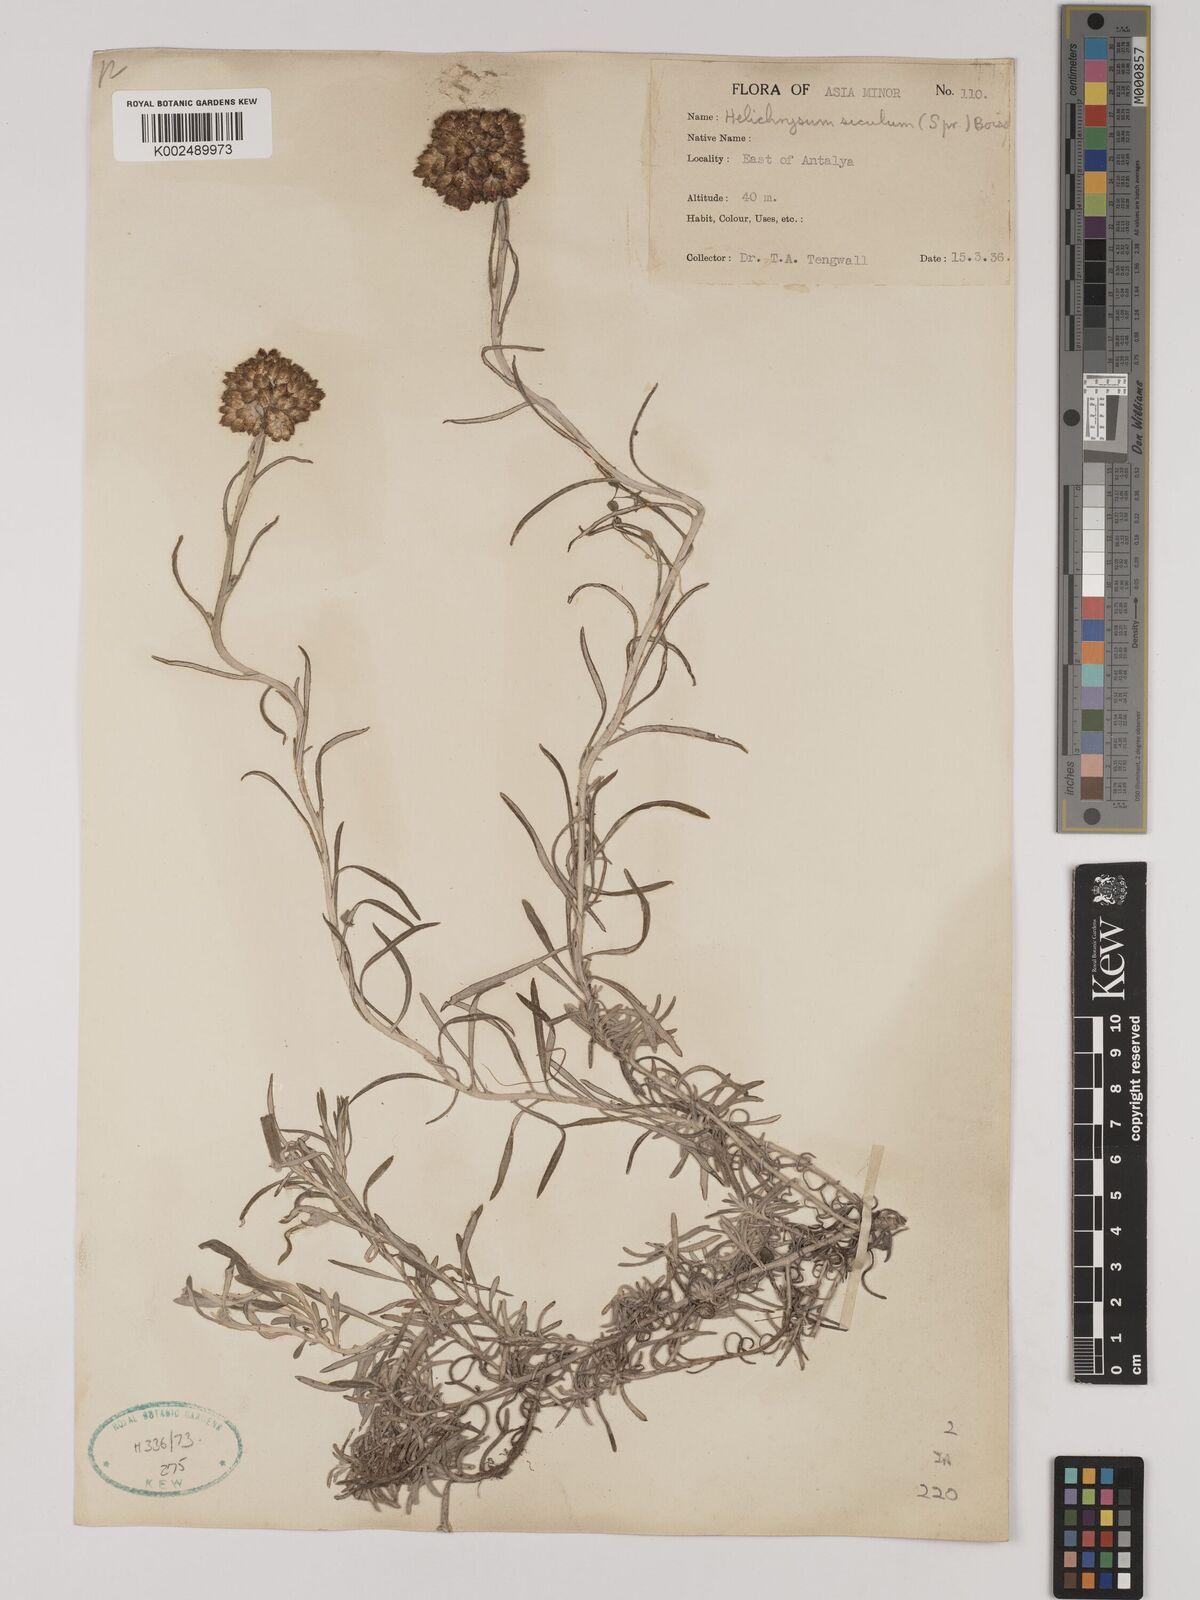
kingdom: Plantae
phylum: Tracheophyta
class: Magnoliopsida
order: Asterales
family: Asteraceae
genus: Helichrysum
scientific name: Helichrysum stoechas
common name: Goldilocks
